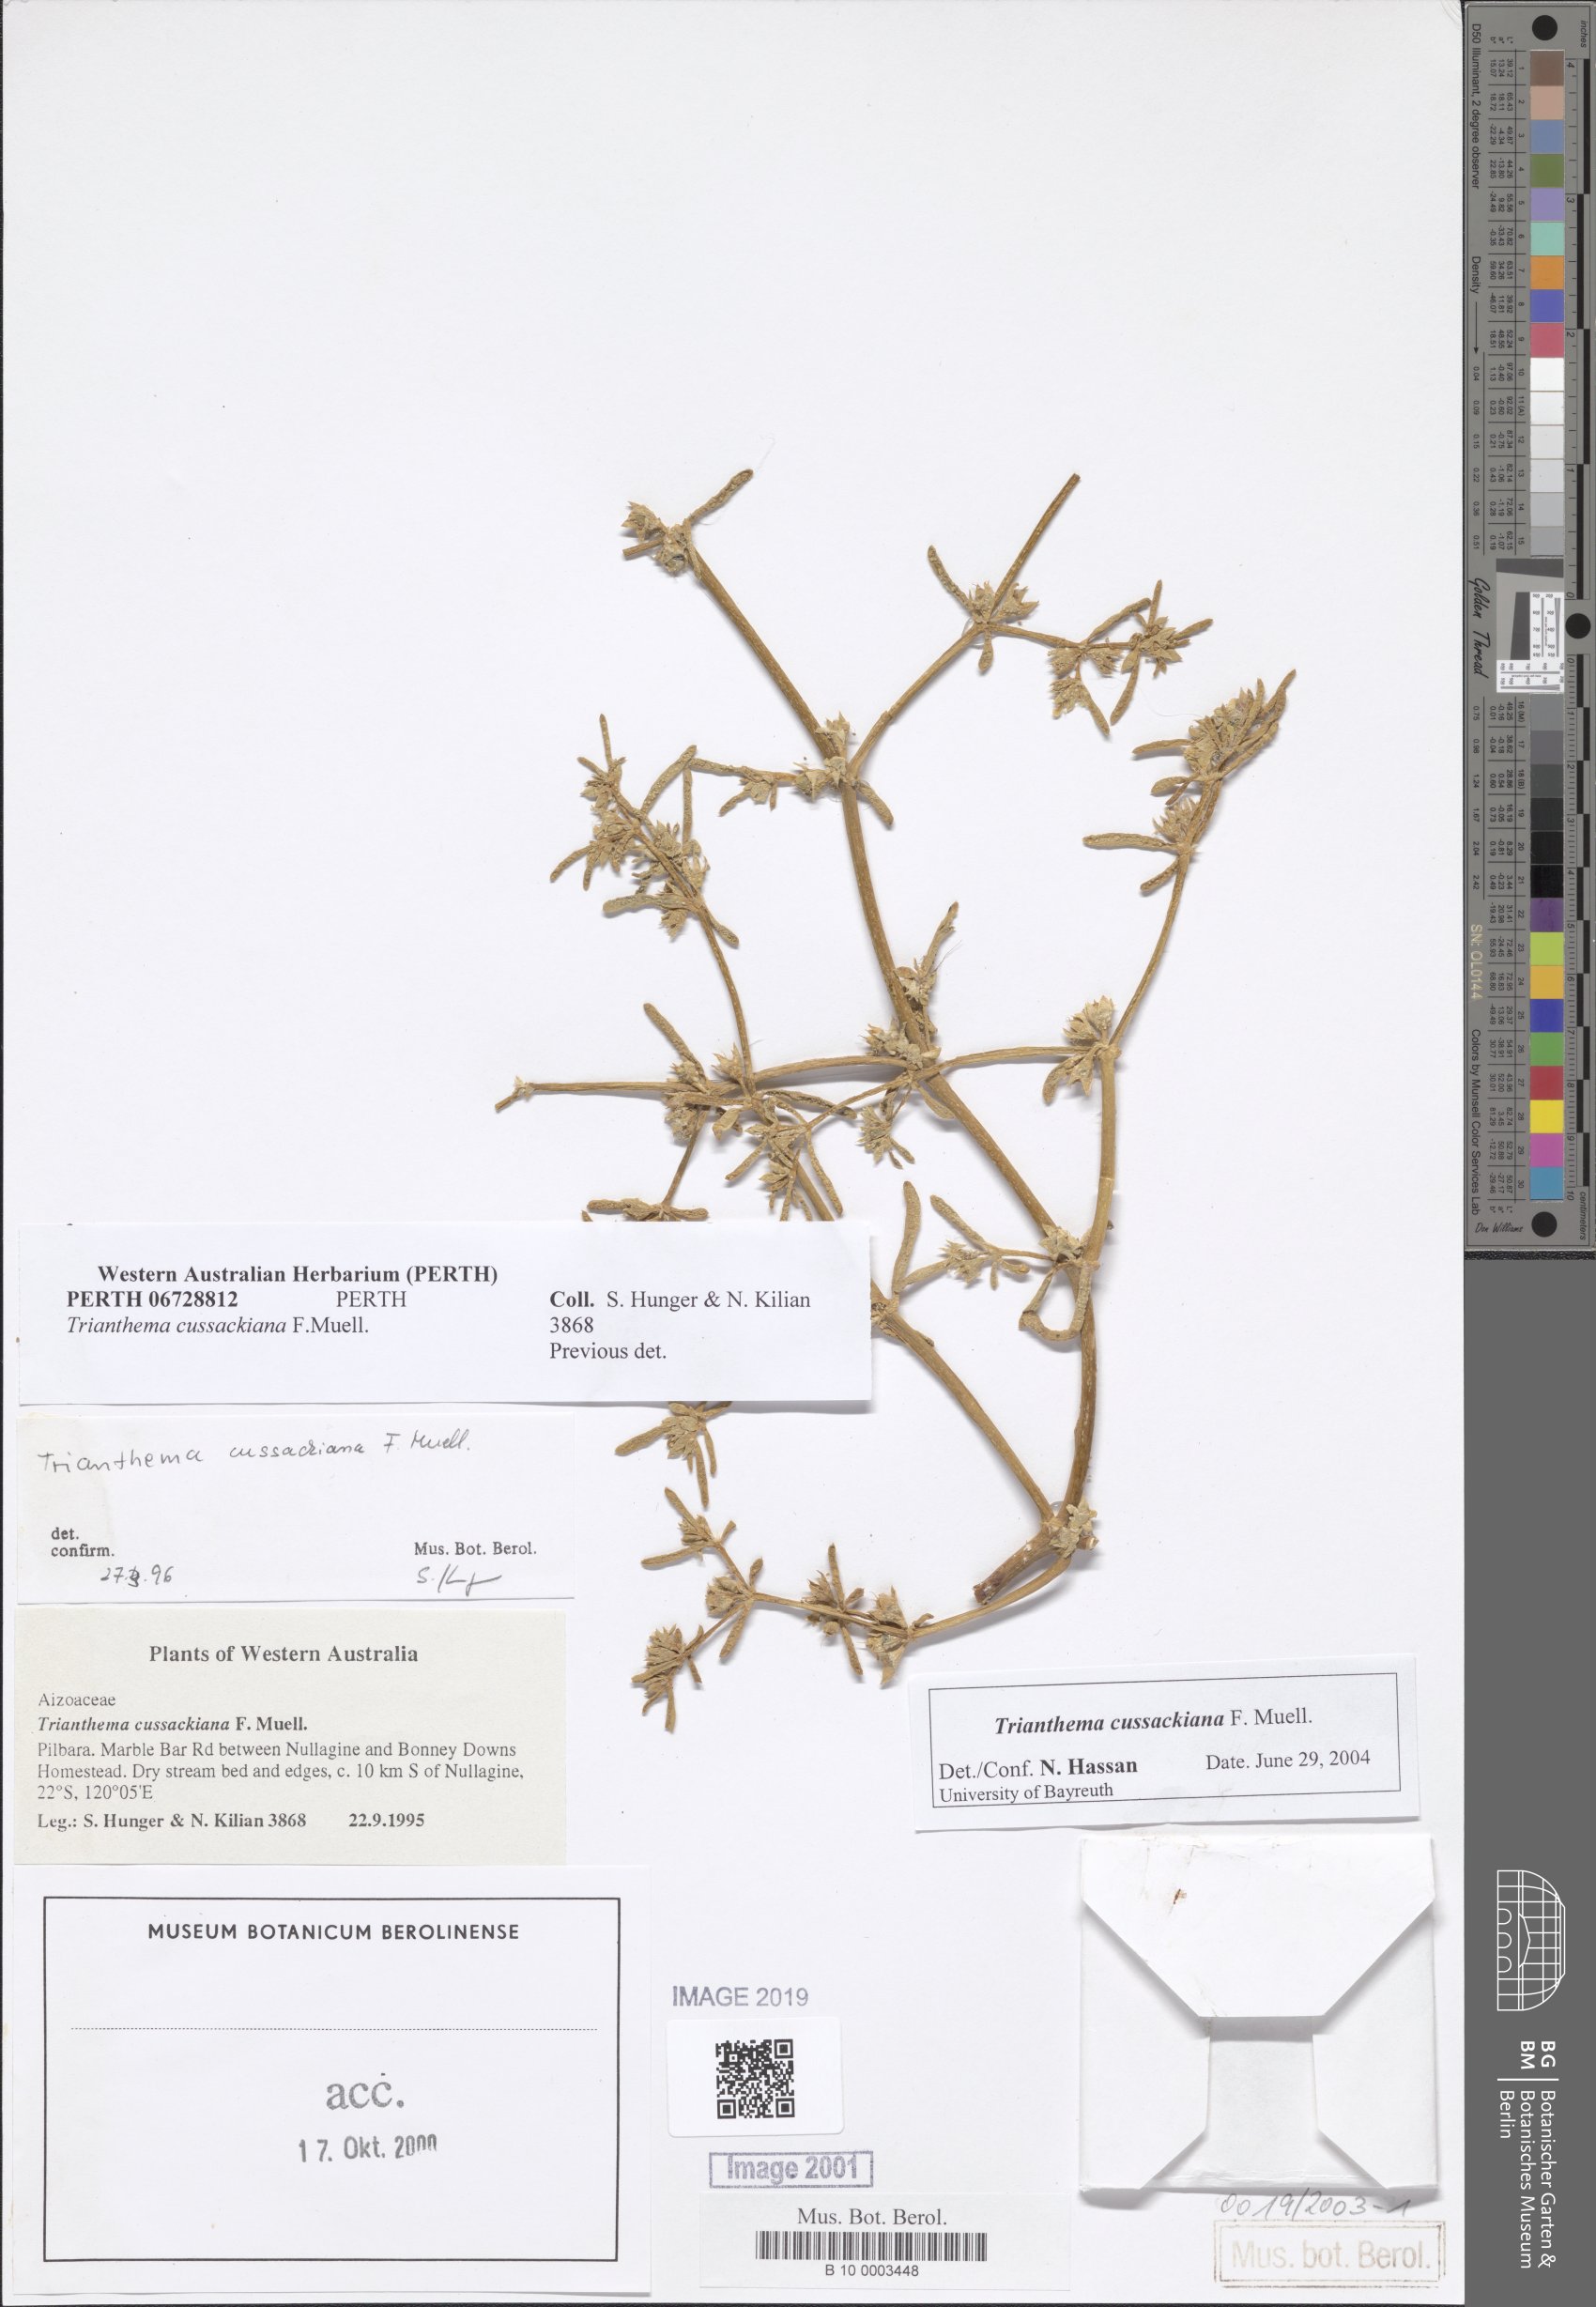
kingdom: Plantae
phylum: Tracheophyta
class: Magnoliopsida
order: Caryophyllales
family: Aizoaceae
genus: Trianthema
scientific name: Trianthema cussackianum
